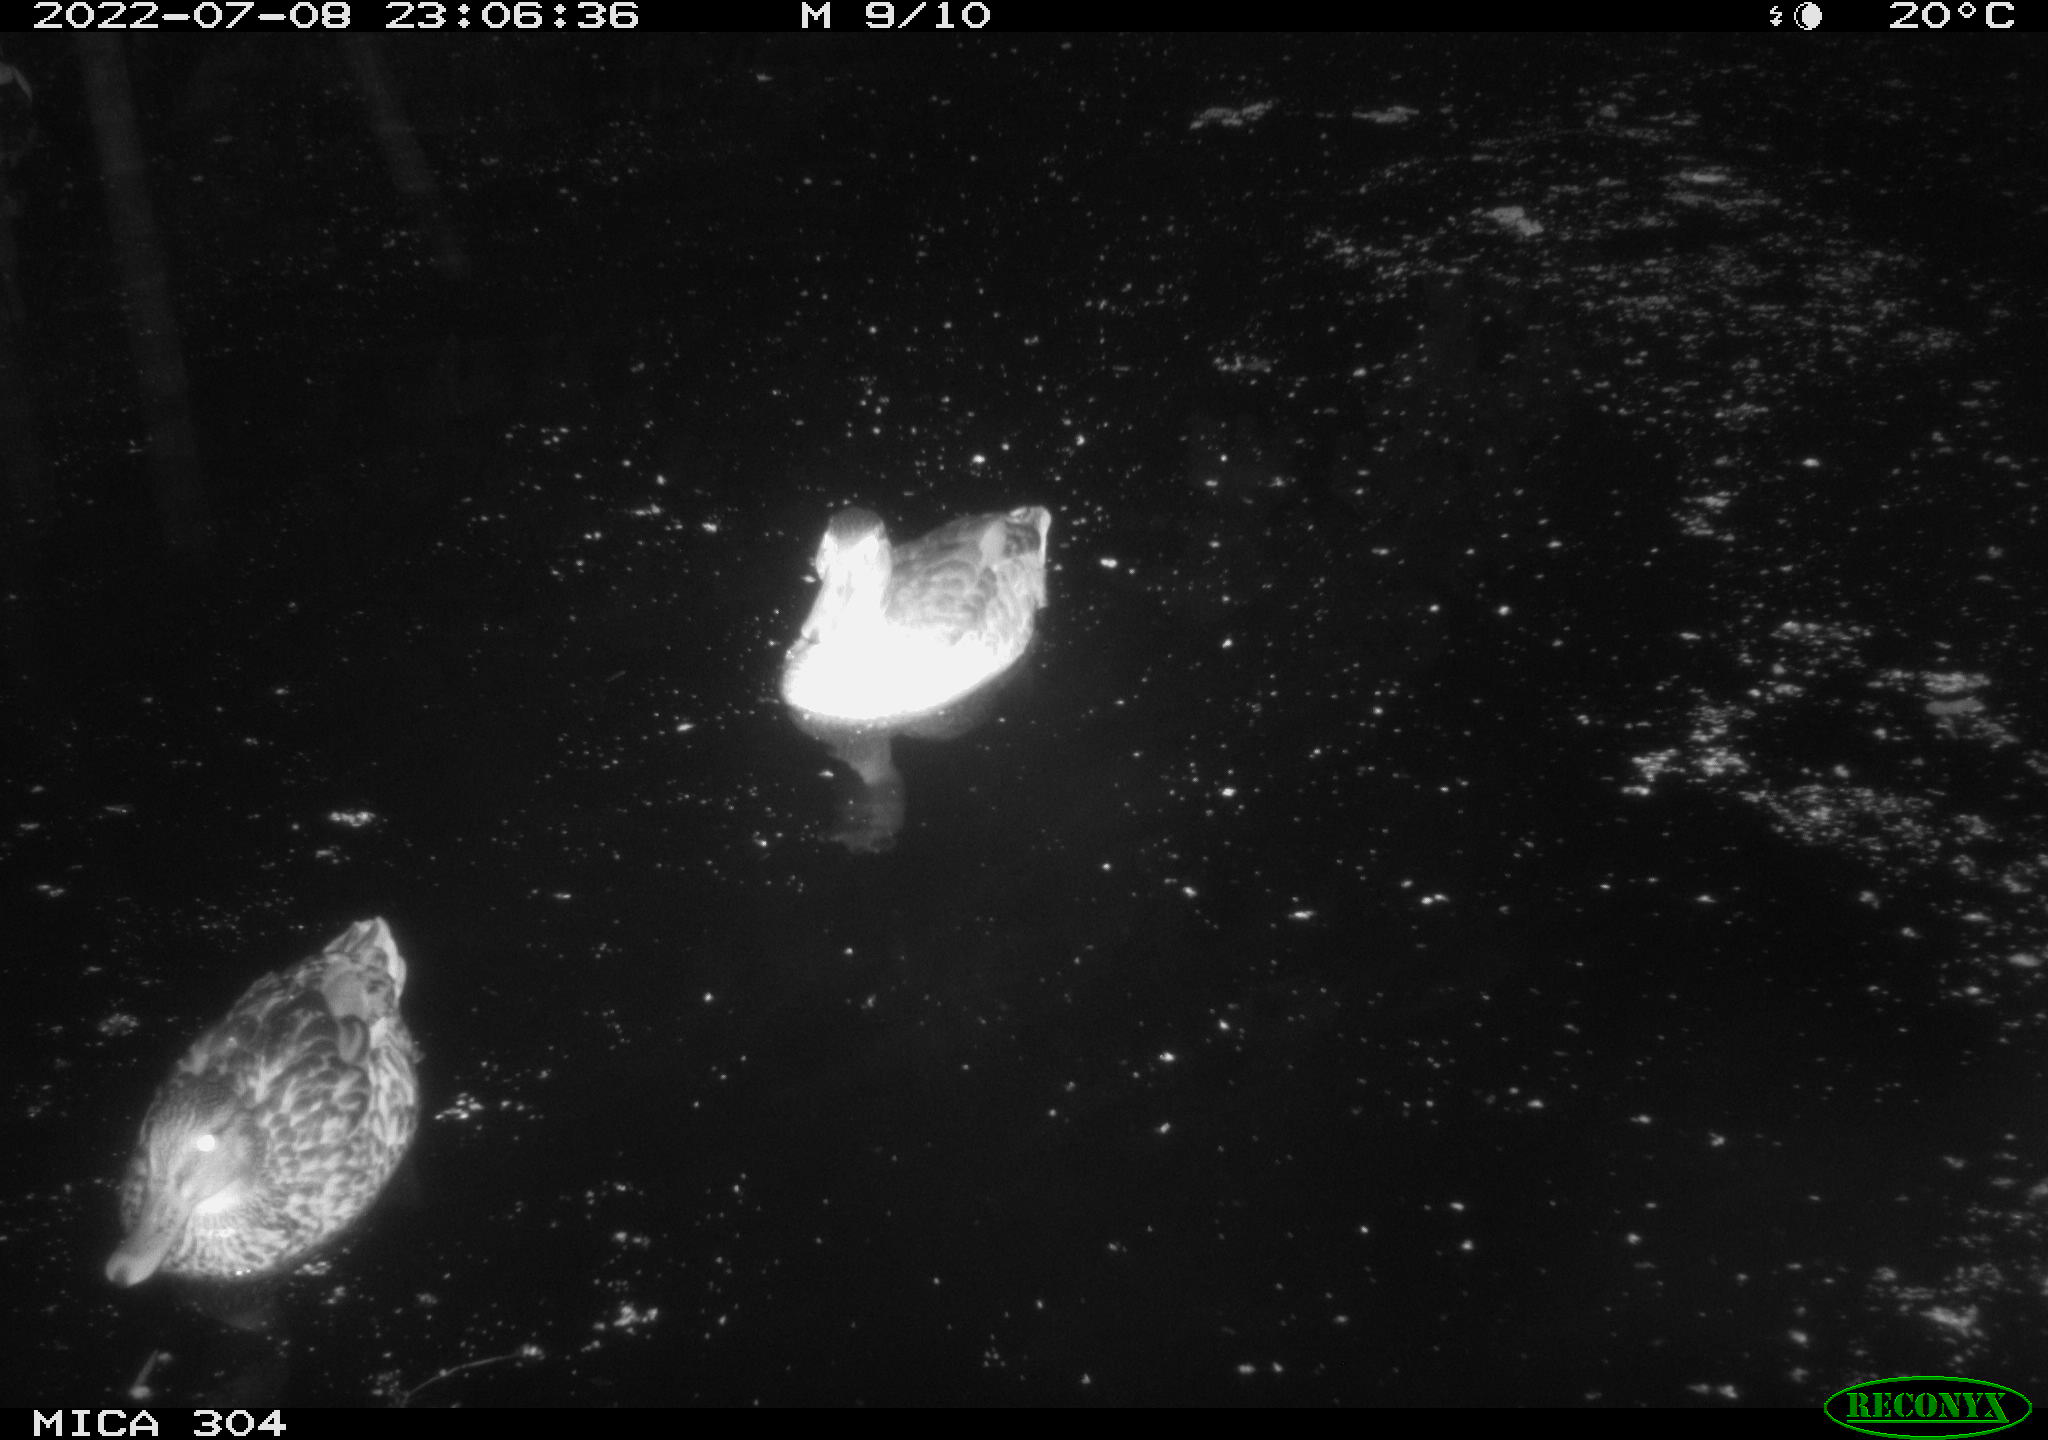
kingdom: Animalia
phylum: Chordata
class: Aves
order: Anseriformes
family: Anatidae
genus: Anas
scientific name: Anas platyrhynchos
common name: Mallard
